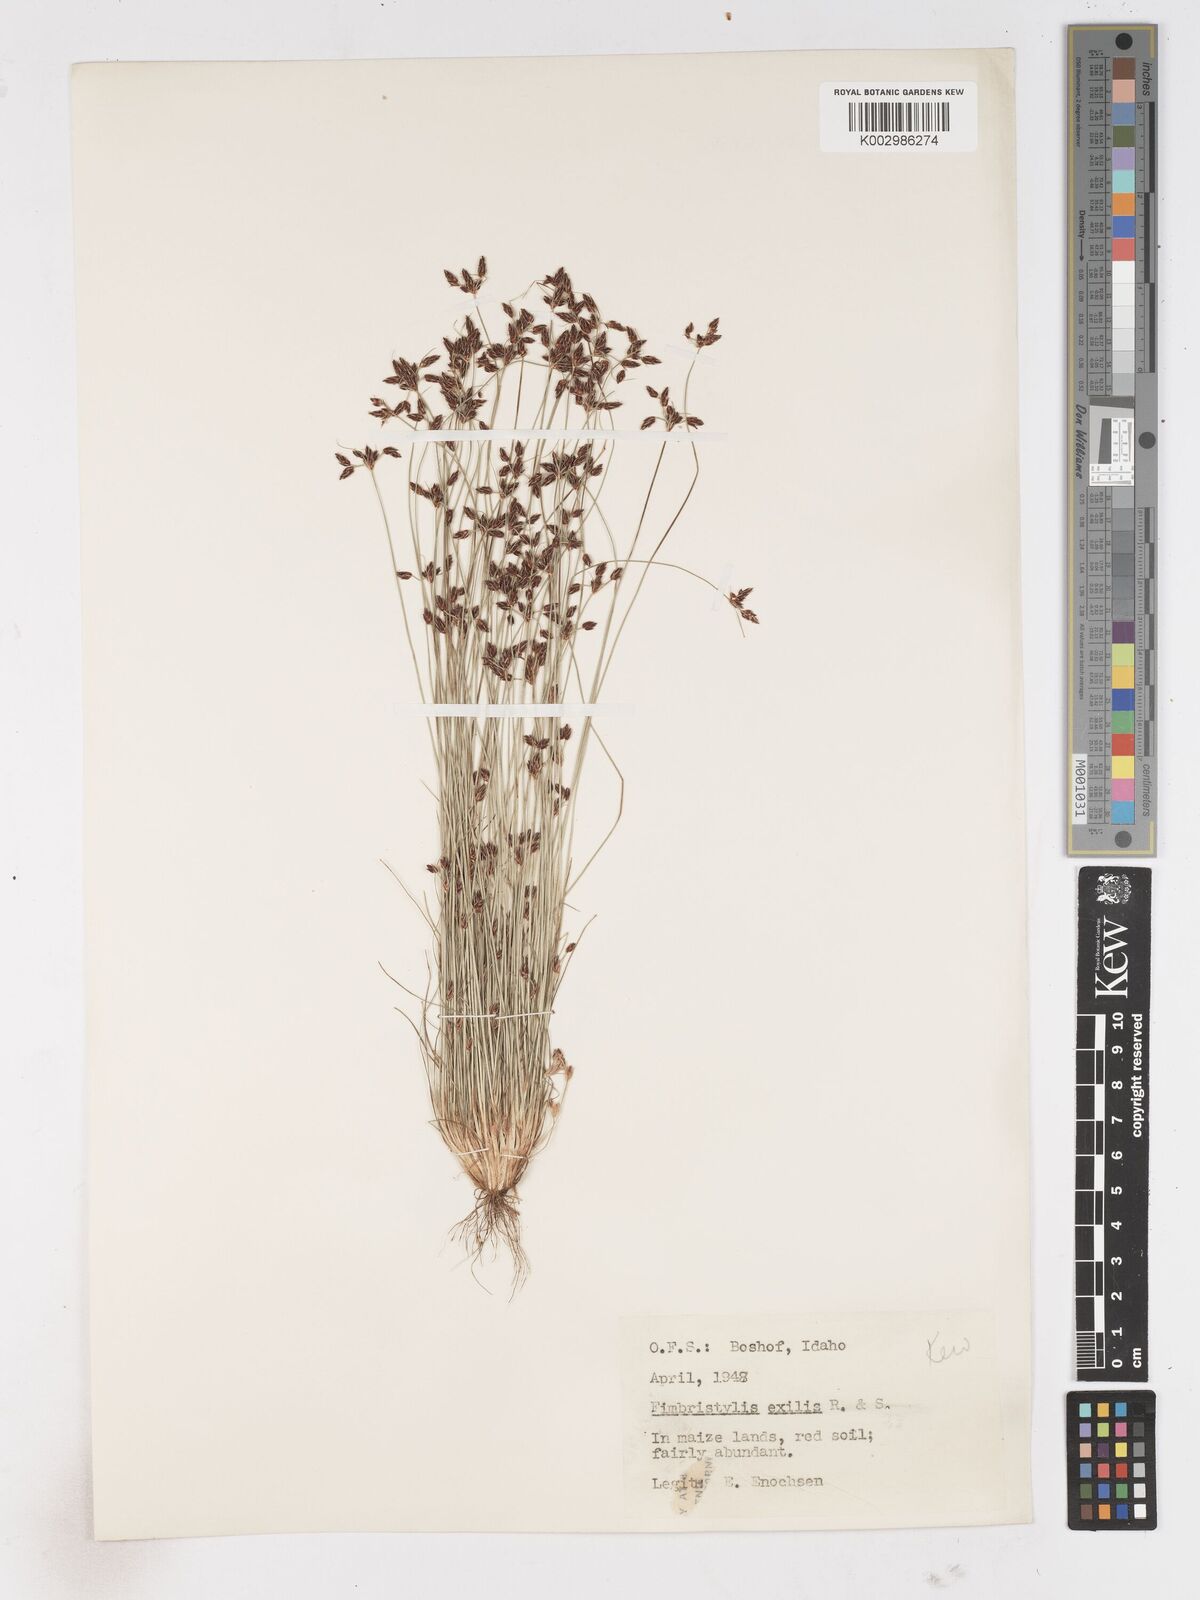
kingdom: Plantae
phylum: Tracheophyta
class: Liliopsida
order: Poales
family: Cyperaceae
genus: Bulbostylis
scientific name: Bulbostylis hispidula
